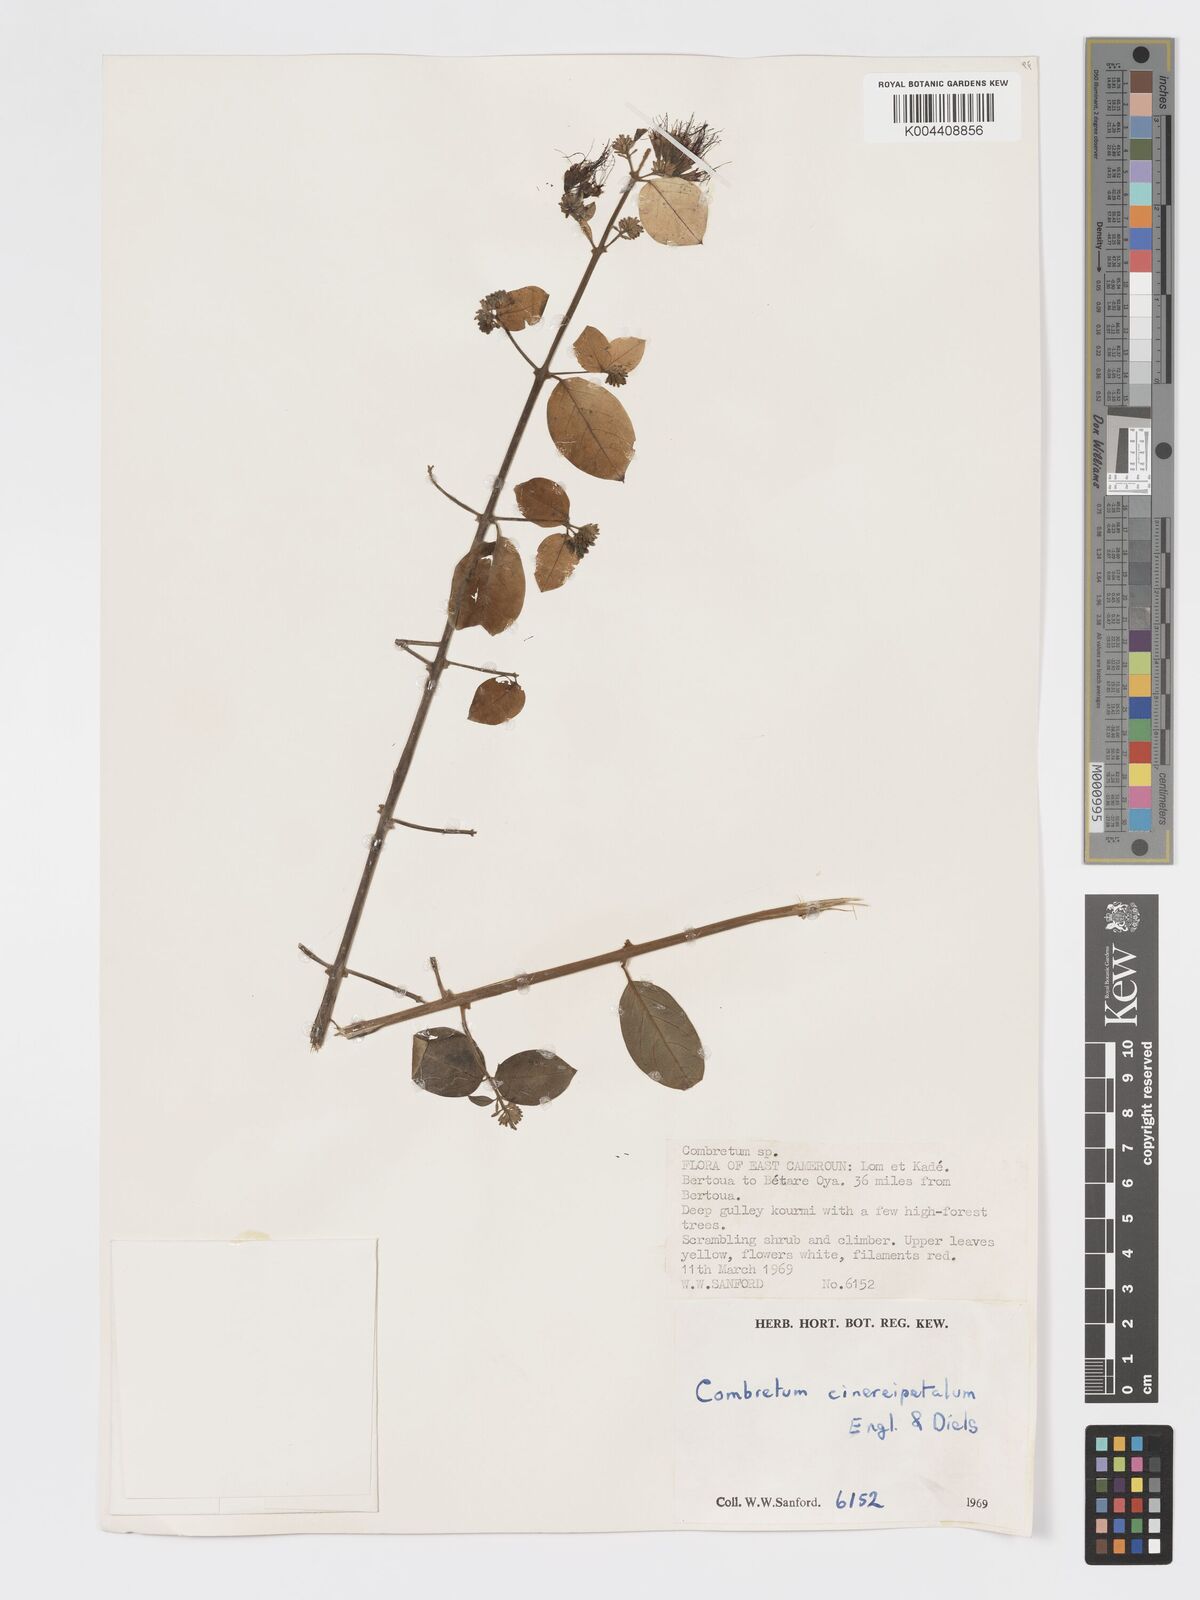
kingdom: Plantae
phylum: Tracheophyta
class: Magnoliopsida
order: Myrtales
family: Combretaceae
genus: Combretum
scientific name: Combretum cinereopetalum
